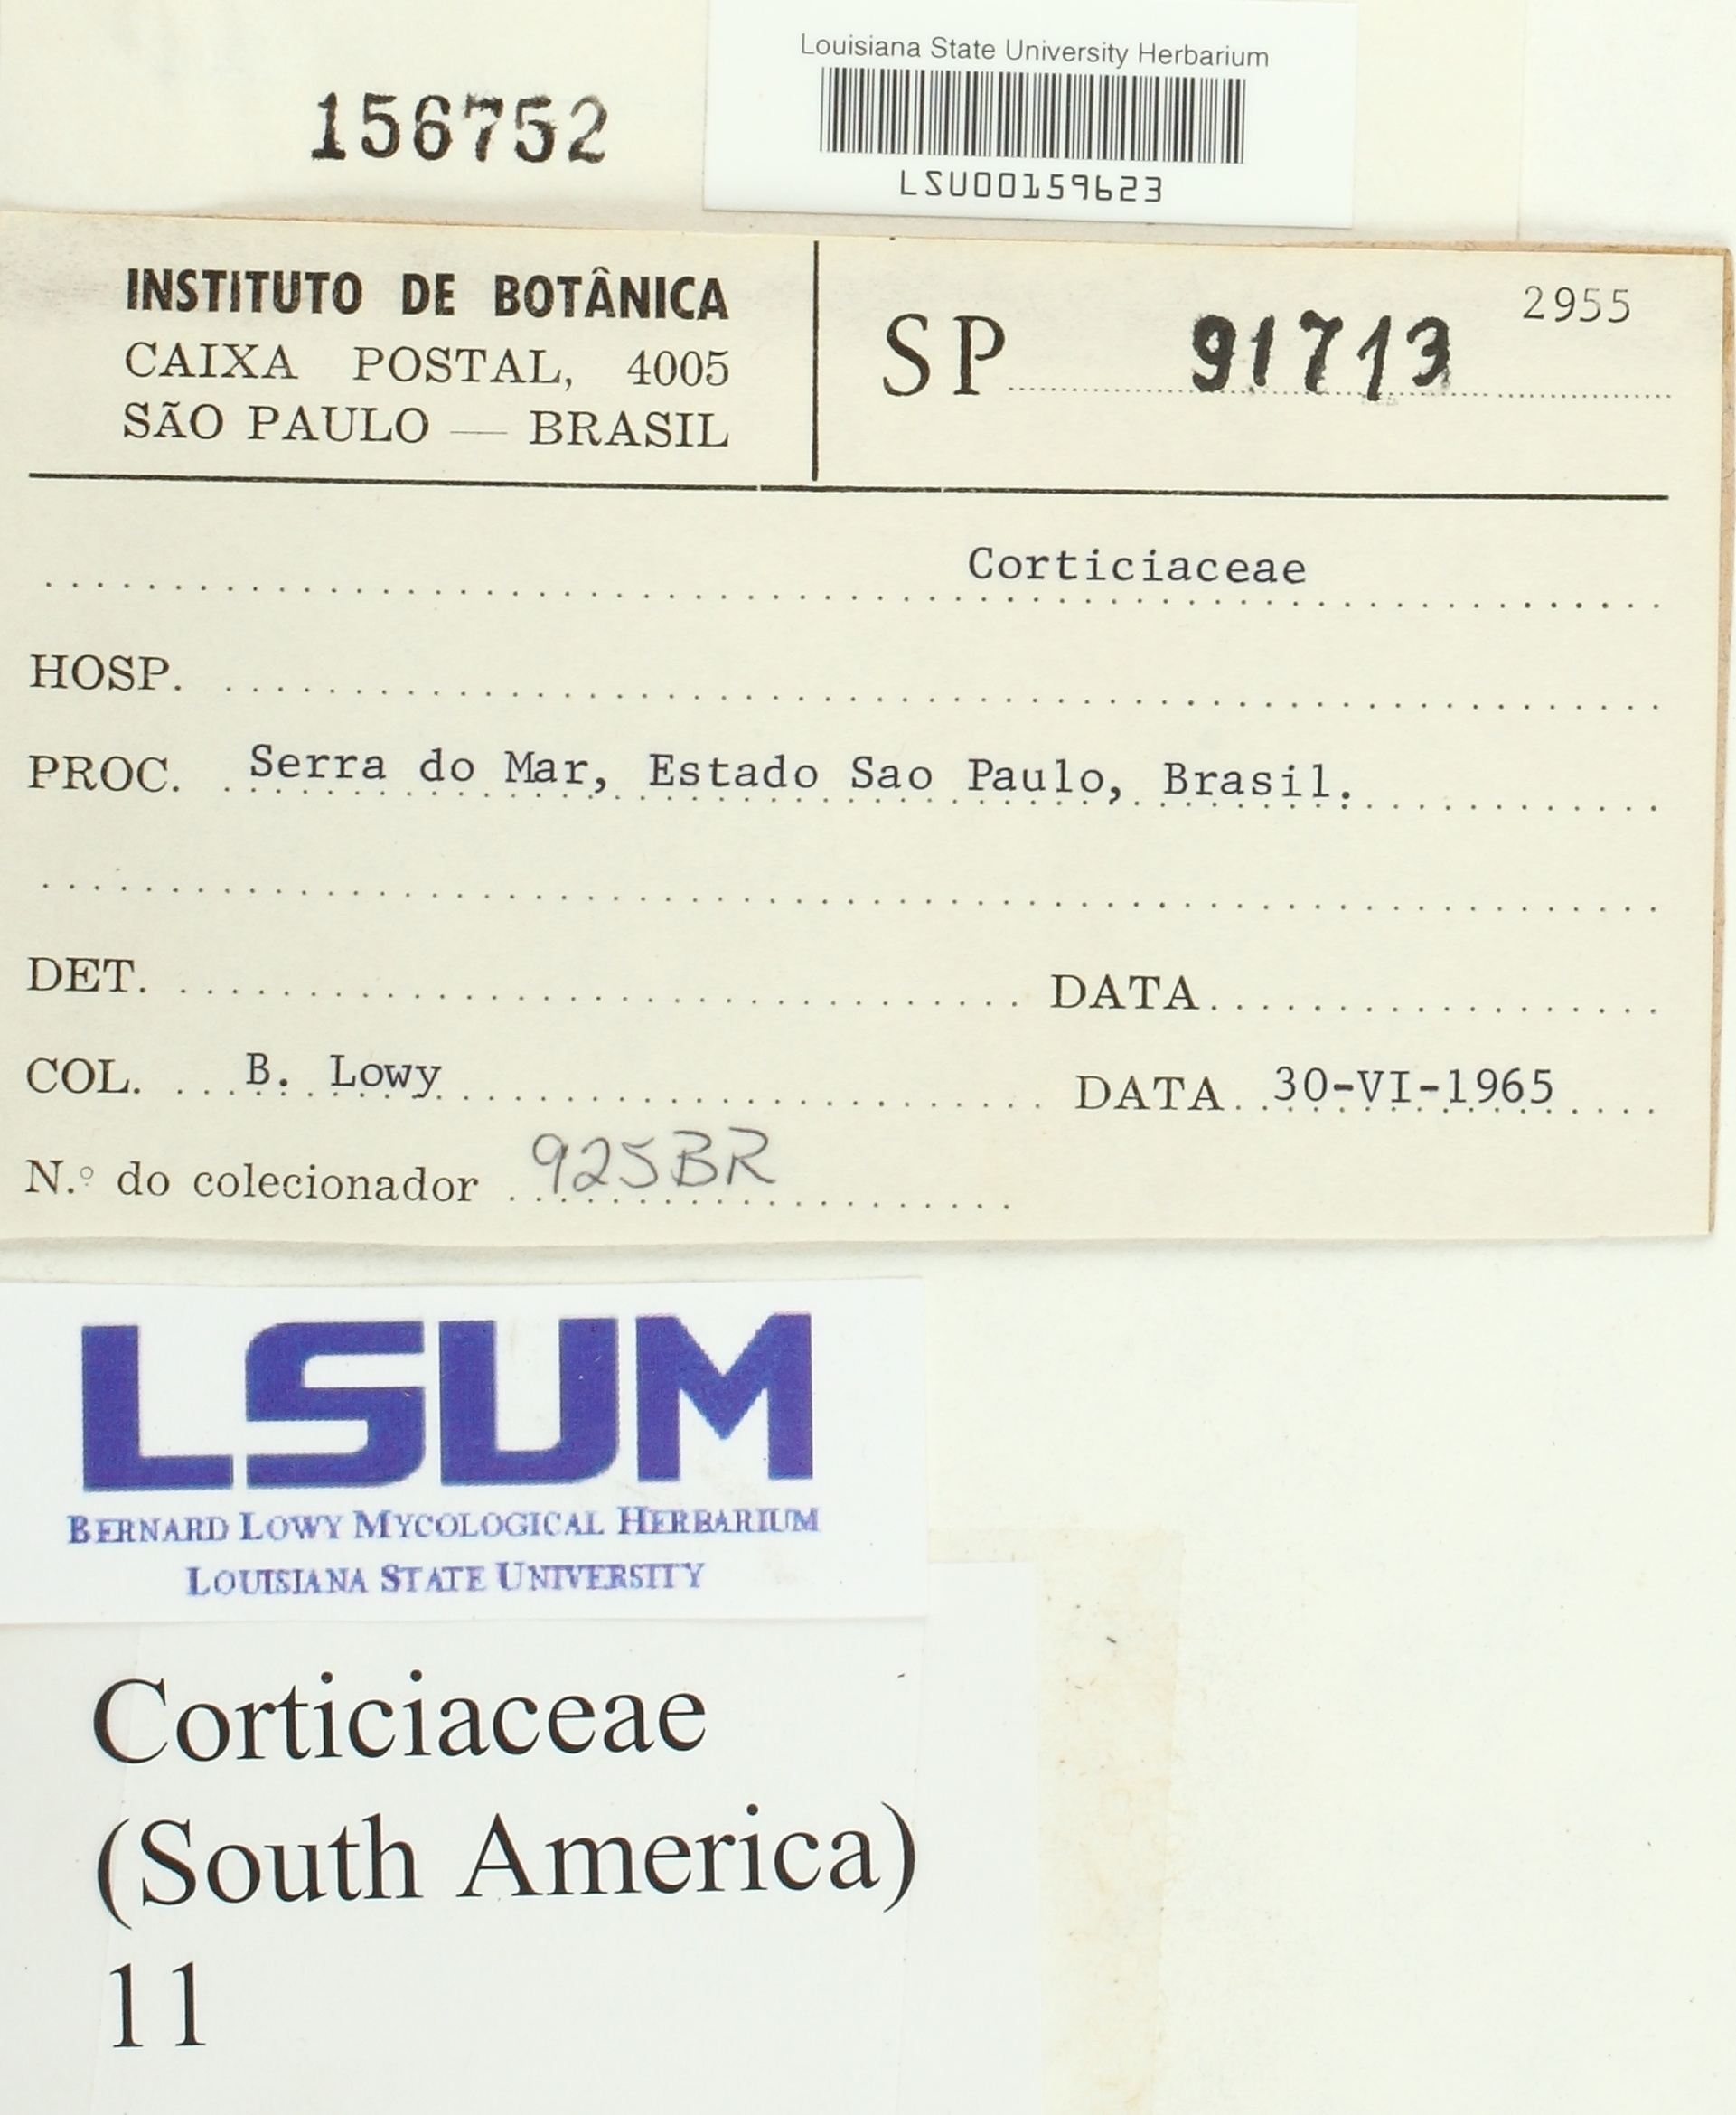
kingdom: Fungi
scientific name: Fungi
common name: Fungi
